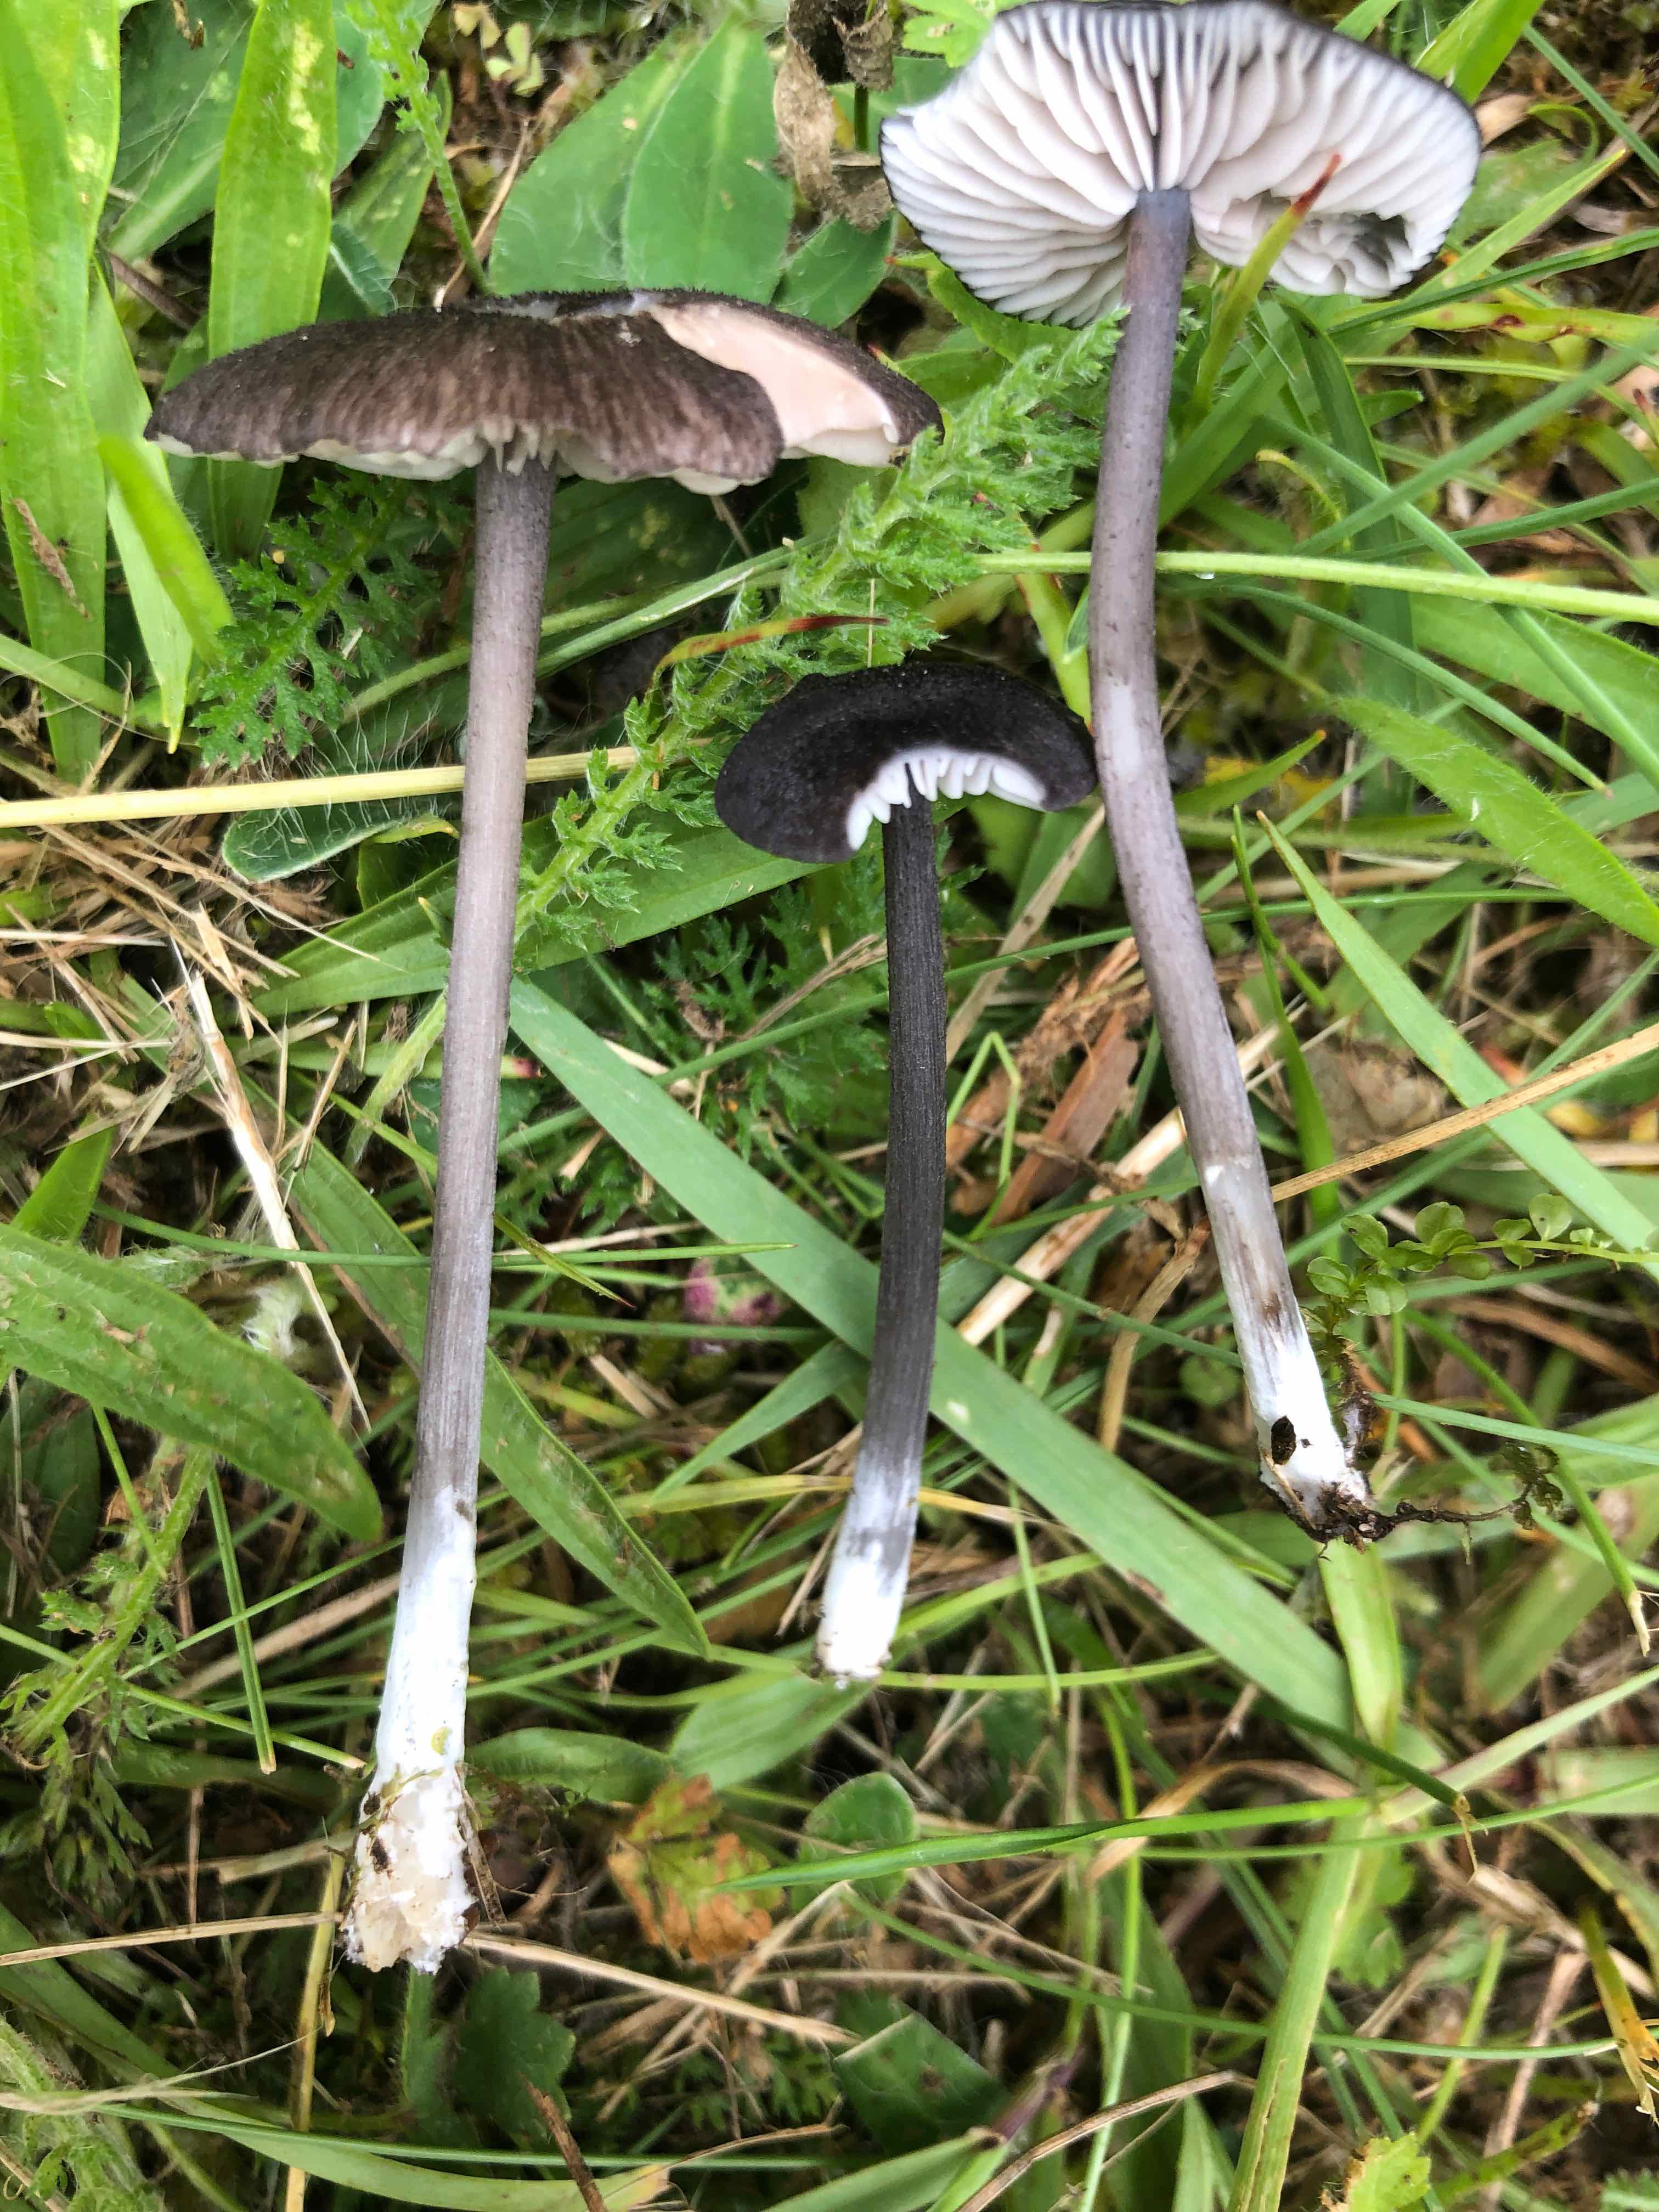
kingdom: Fungi
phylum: Basidiomycota
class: Agaricomycetes
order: Agaricales
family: Entolomataceae
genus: Entoloma
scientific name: Entoloma atrocoeruleum
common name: sortblå rødblad
